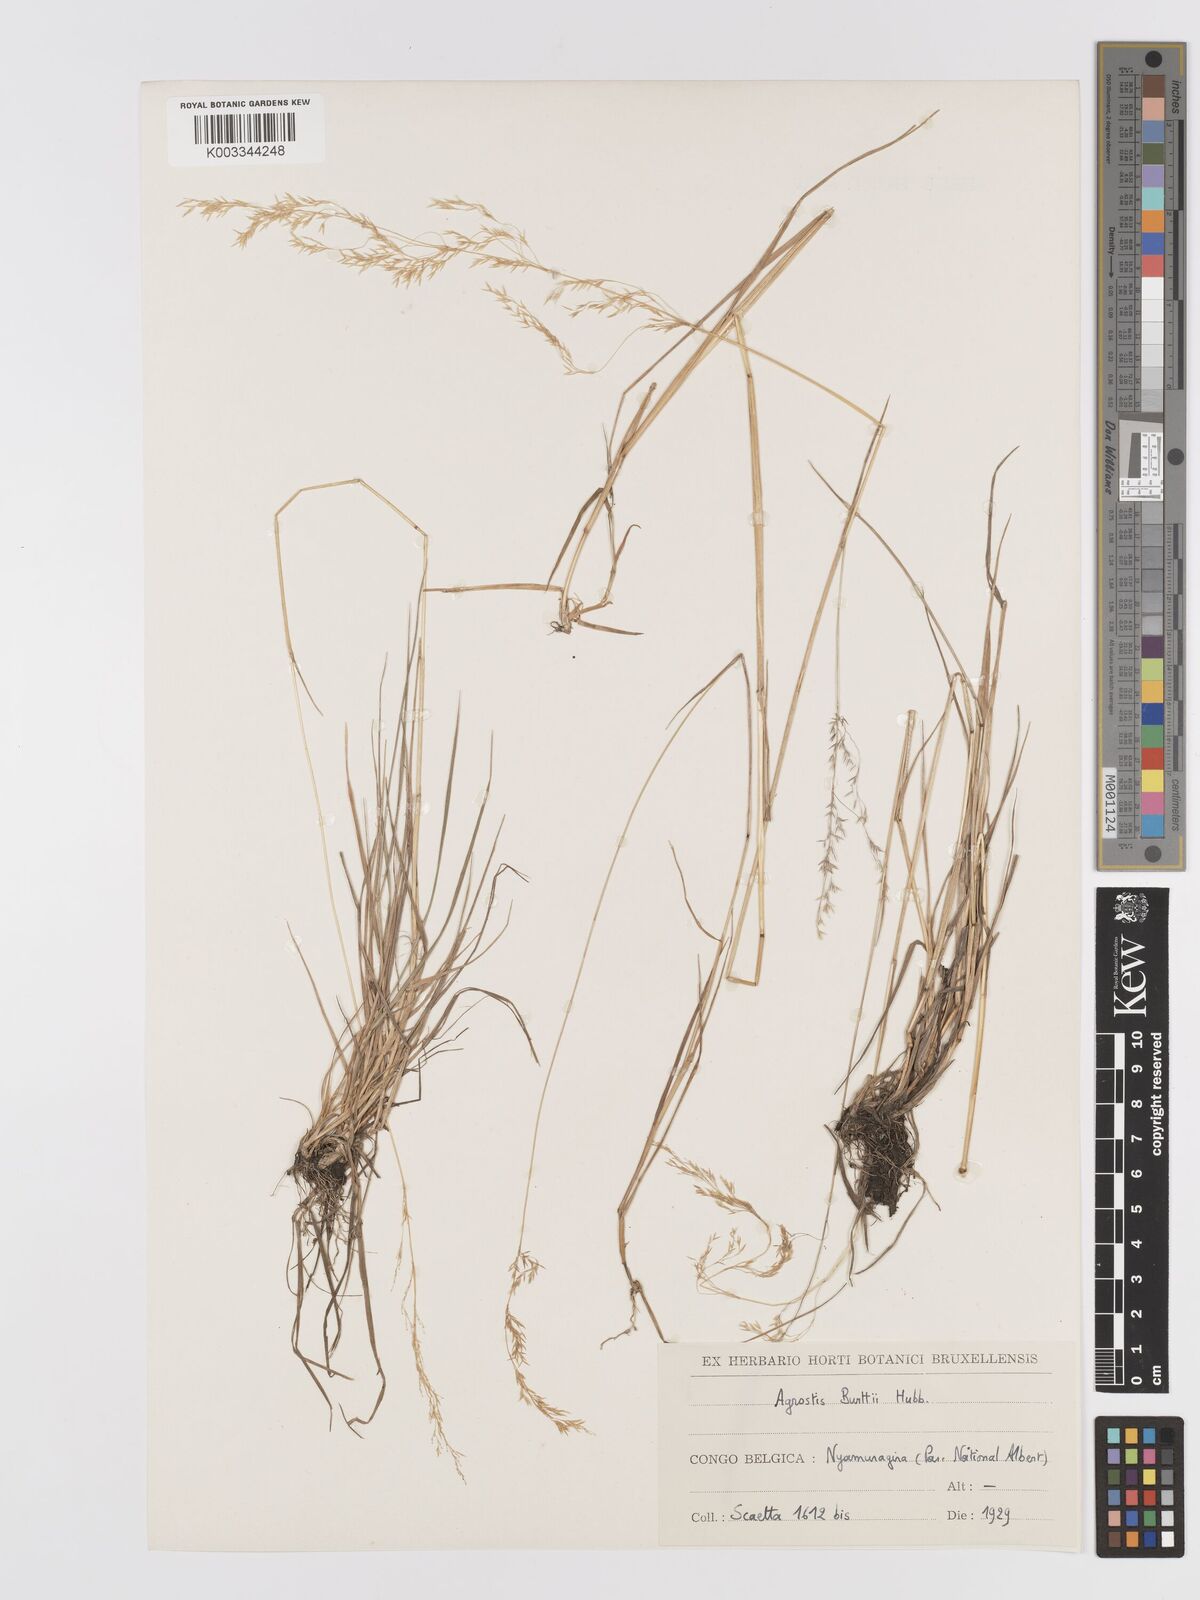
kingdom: Plantae
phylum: Tracheophyta
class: Liliopsida
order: Poales
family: Poaceae
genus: Agrostis
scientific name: Agrostis kilimandscharica
